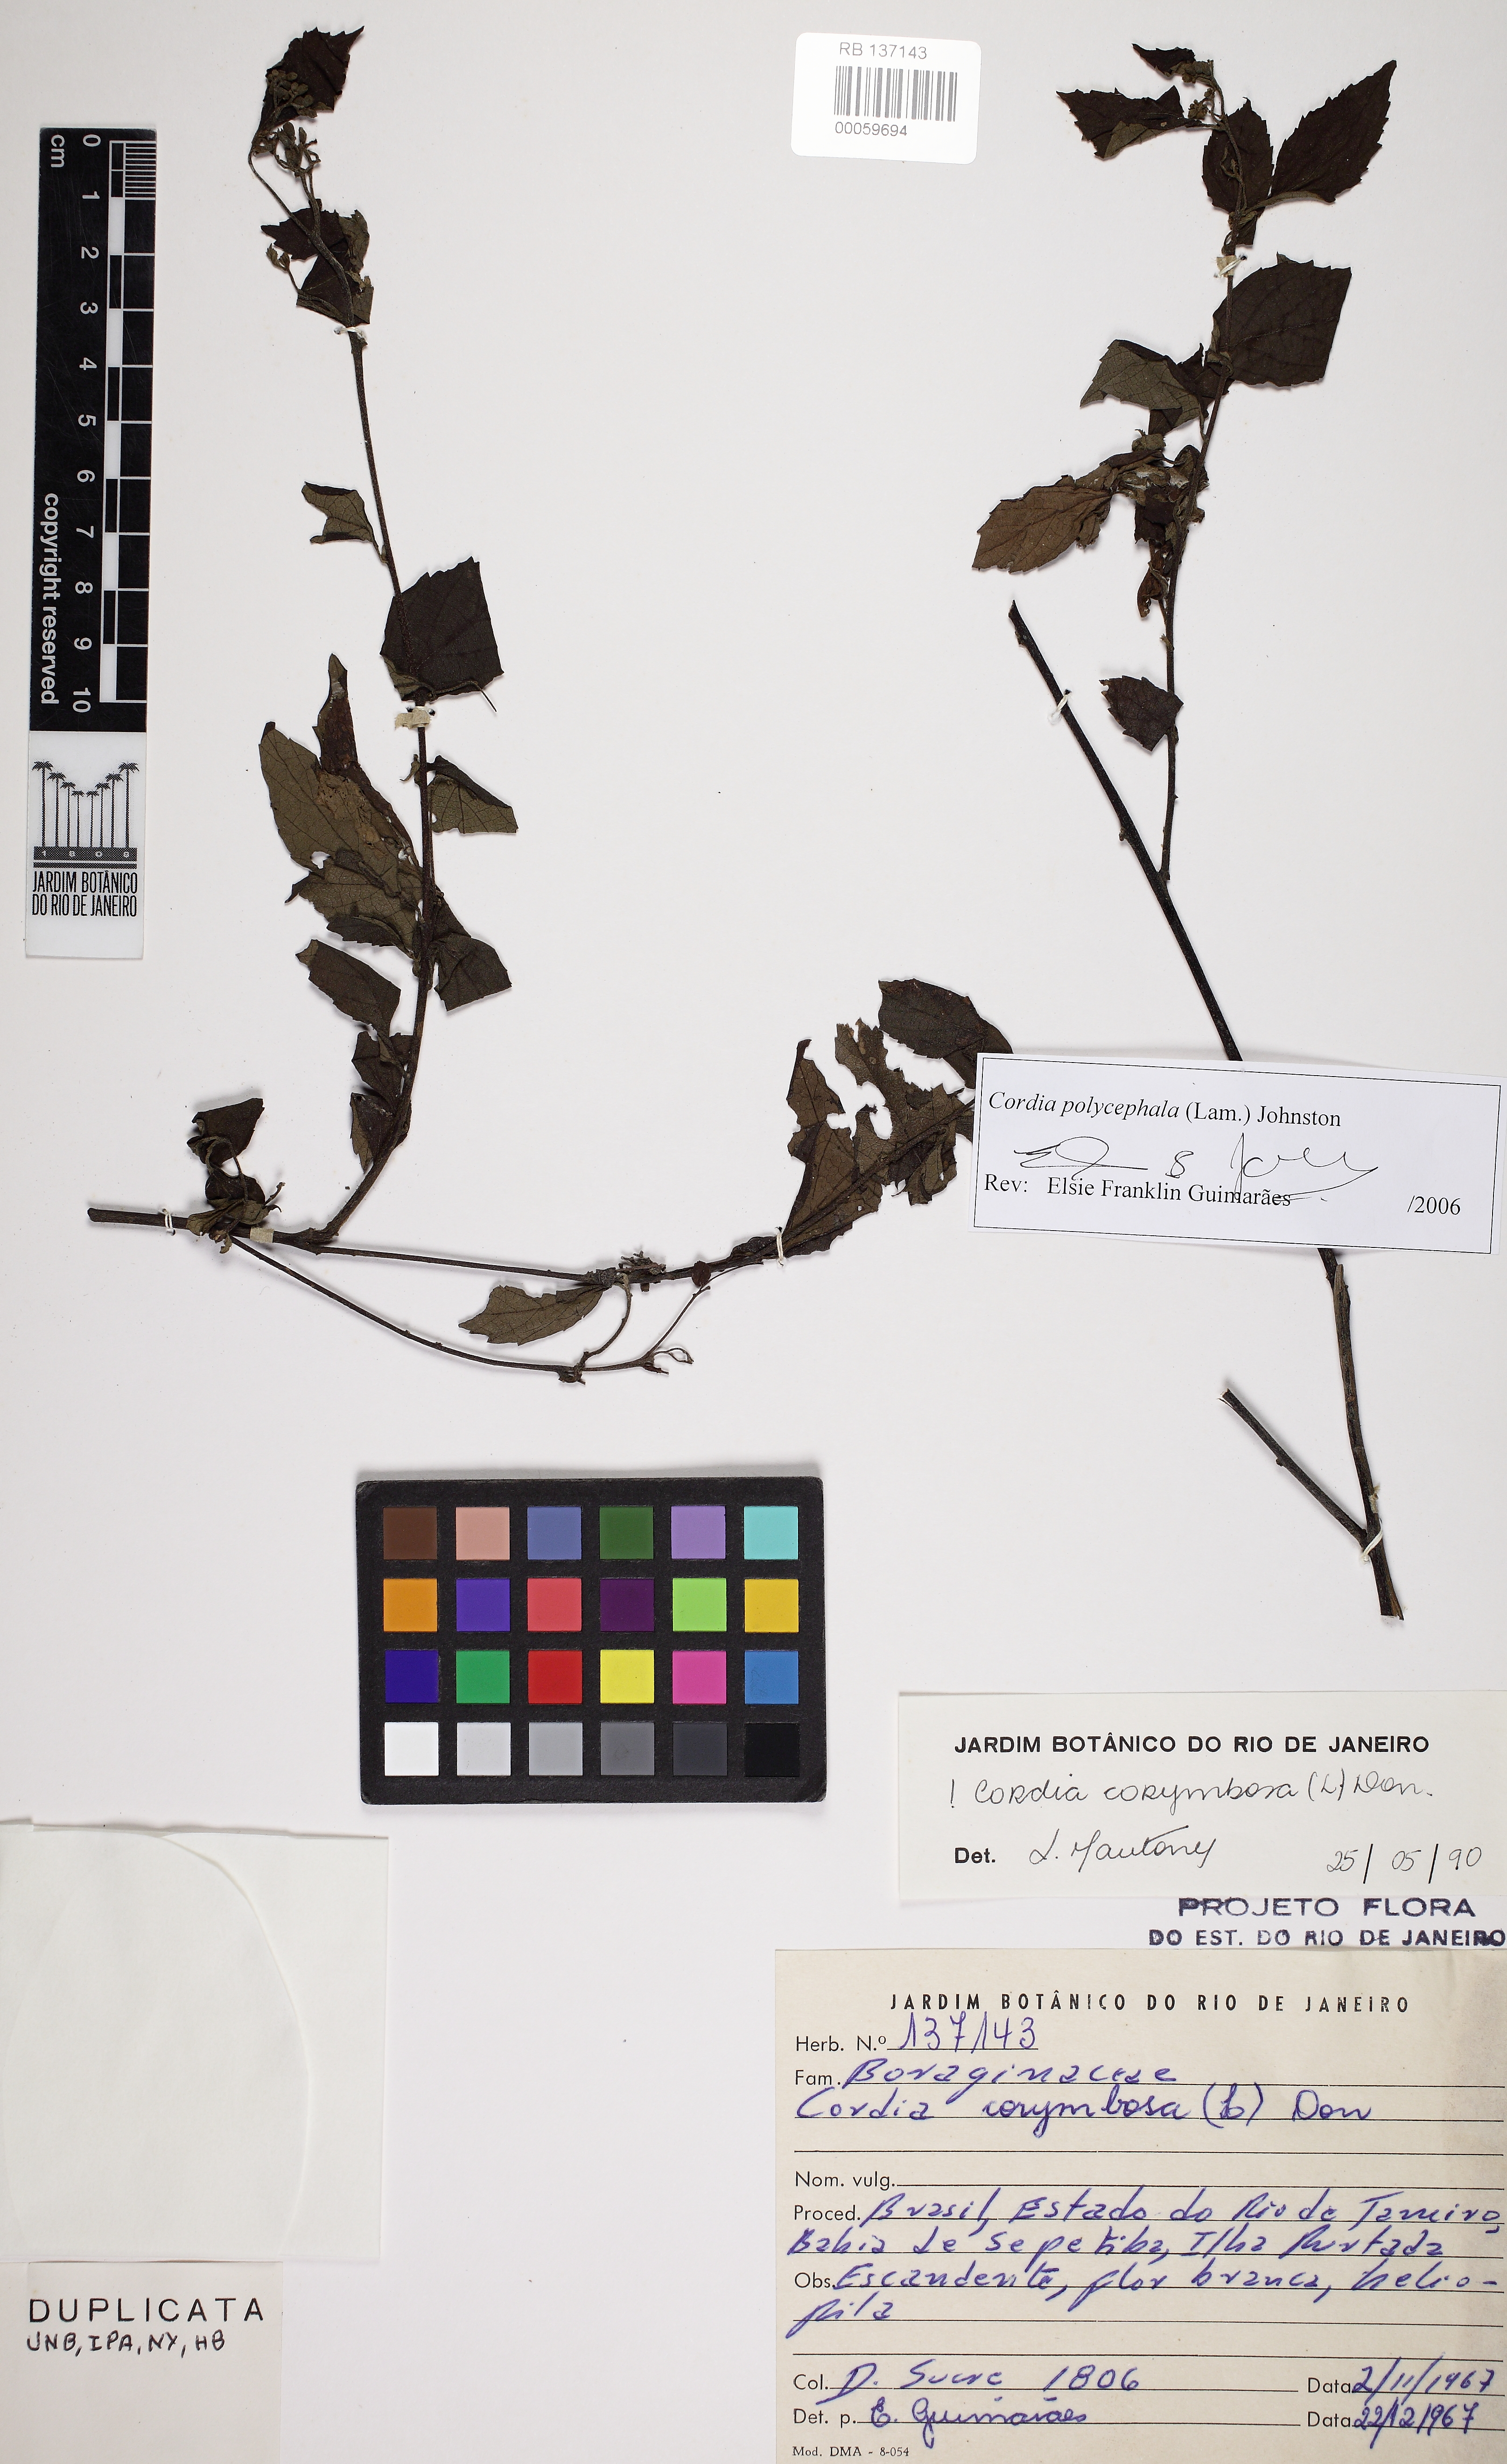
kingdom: Plantae
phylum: Tracheophyta
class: Magnoliopsida
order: Boraginales
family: Cordiaceae
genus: Varronia
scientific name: Varronia polycephala
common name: Black-sage
